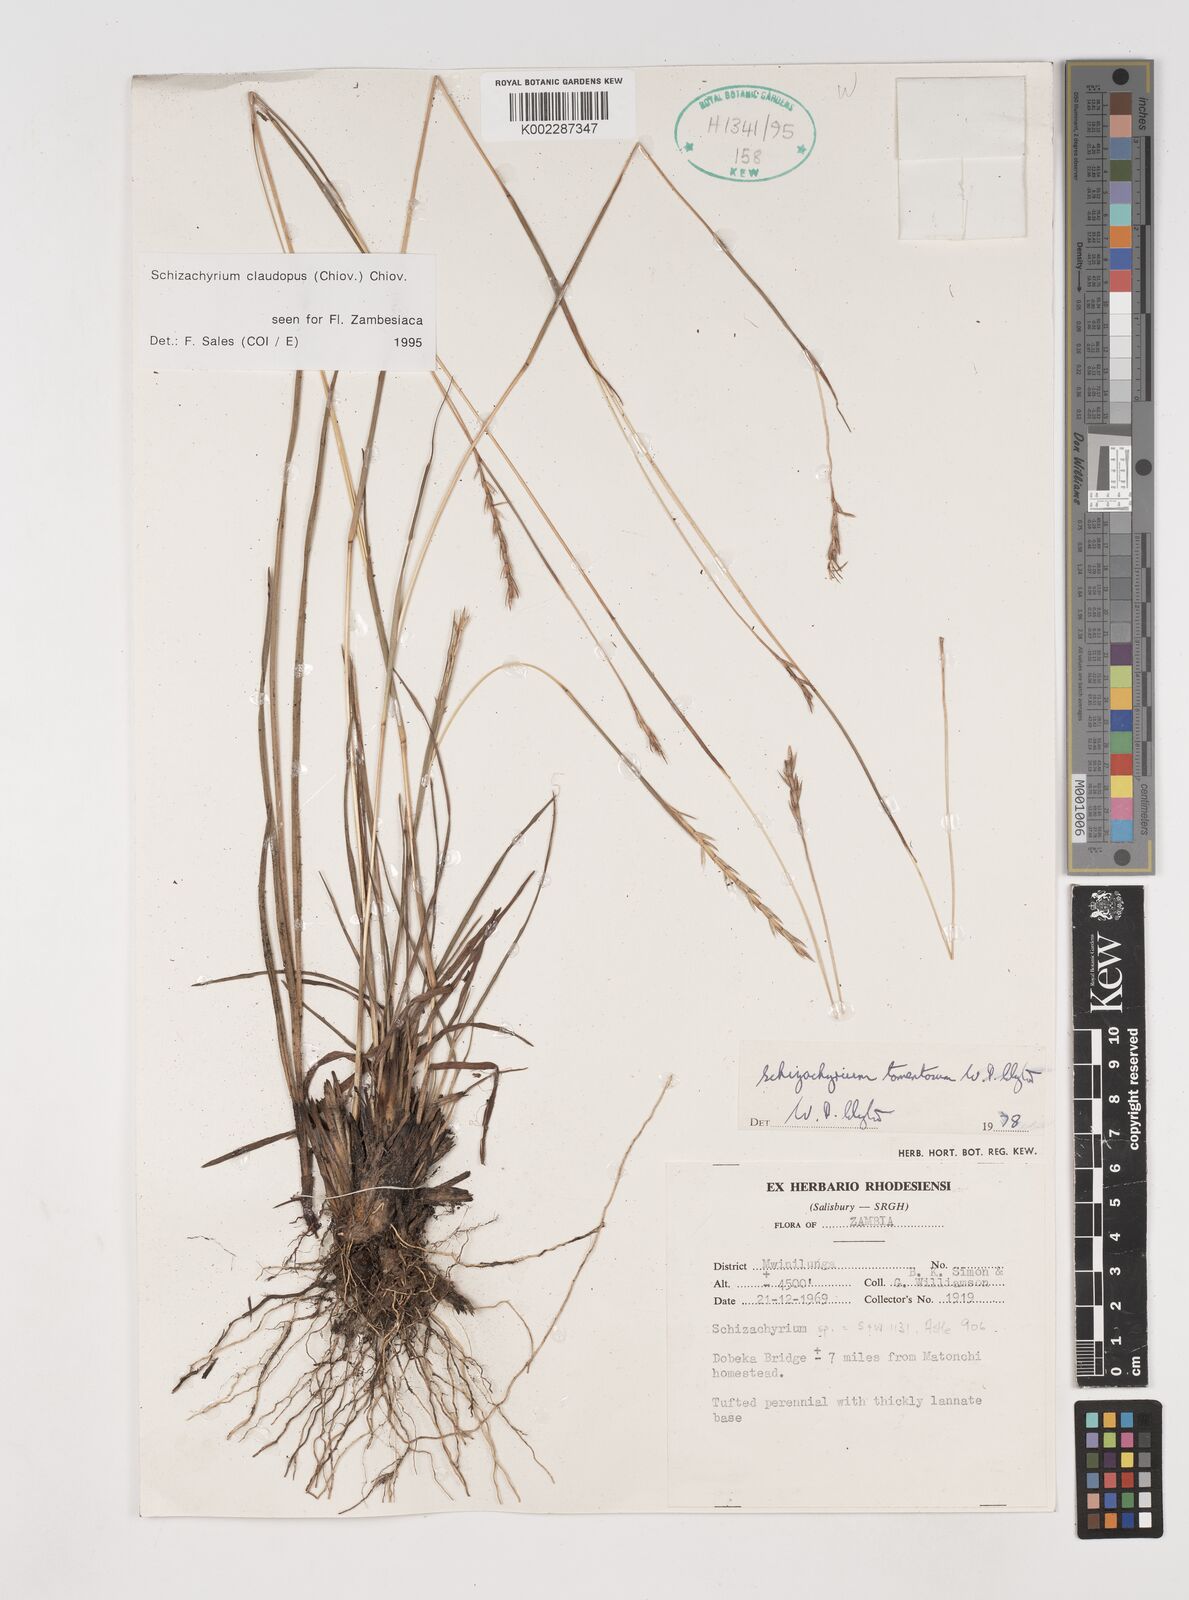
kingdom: Plantae
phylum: Tracheophyta
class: Liliopsida
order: Poales
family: Poaceae
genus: Schizachyrium
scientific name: Schizachyrium claudopus
